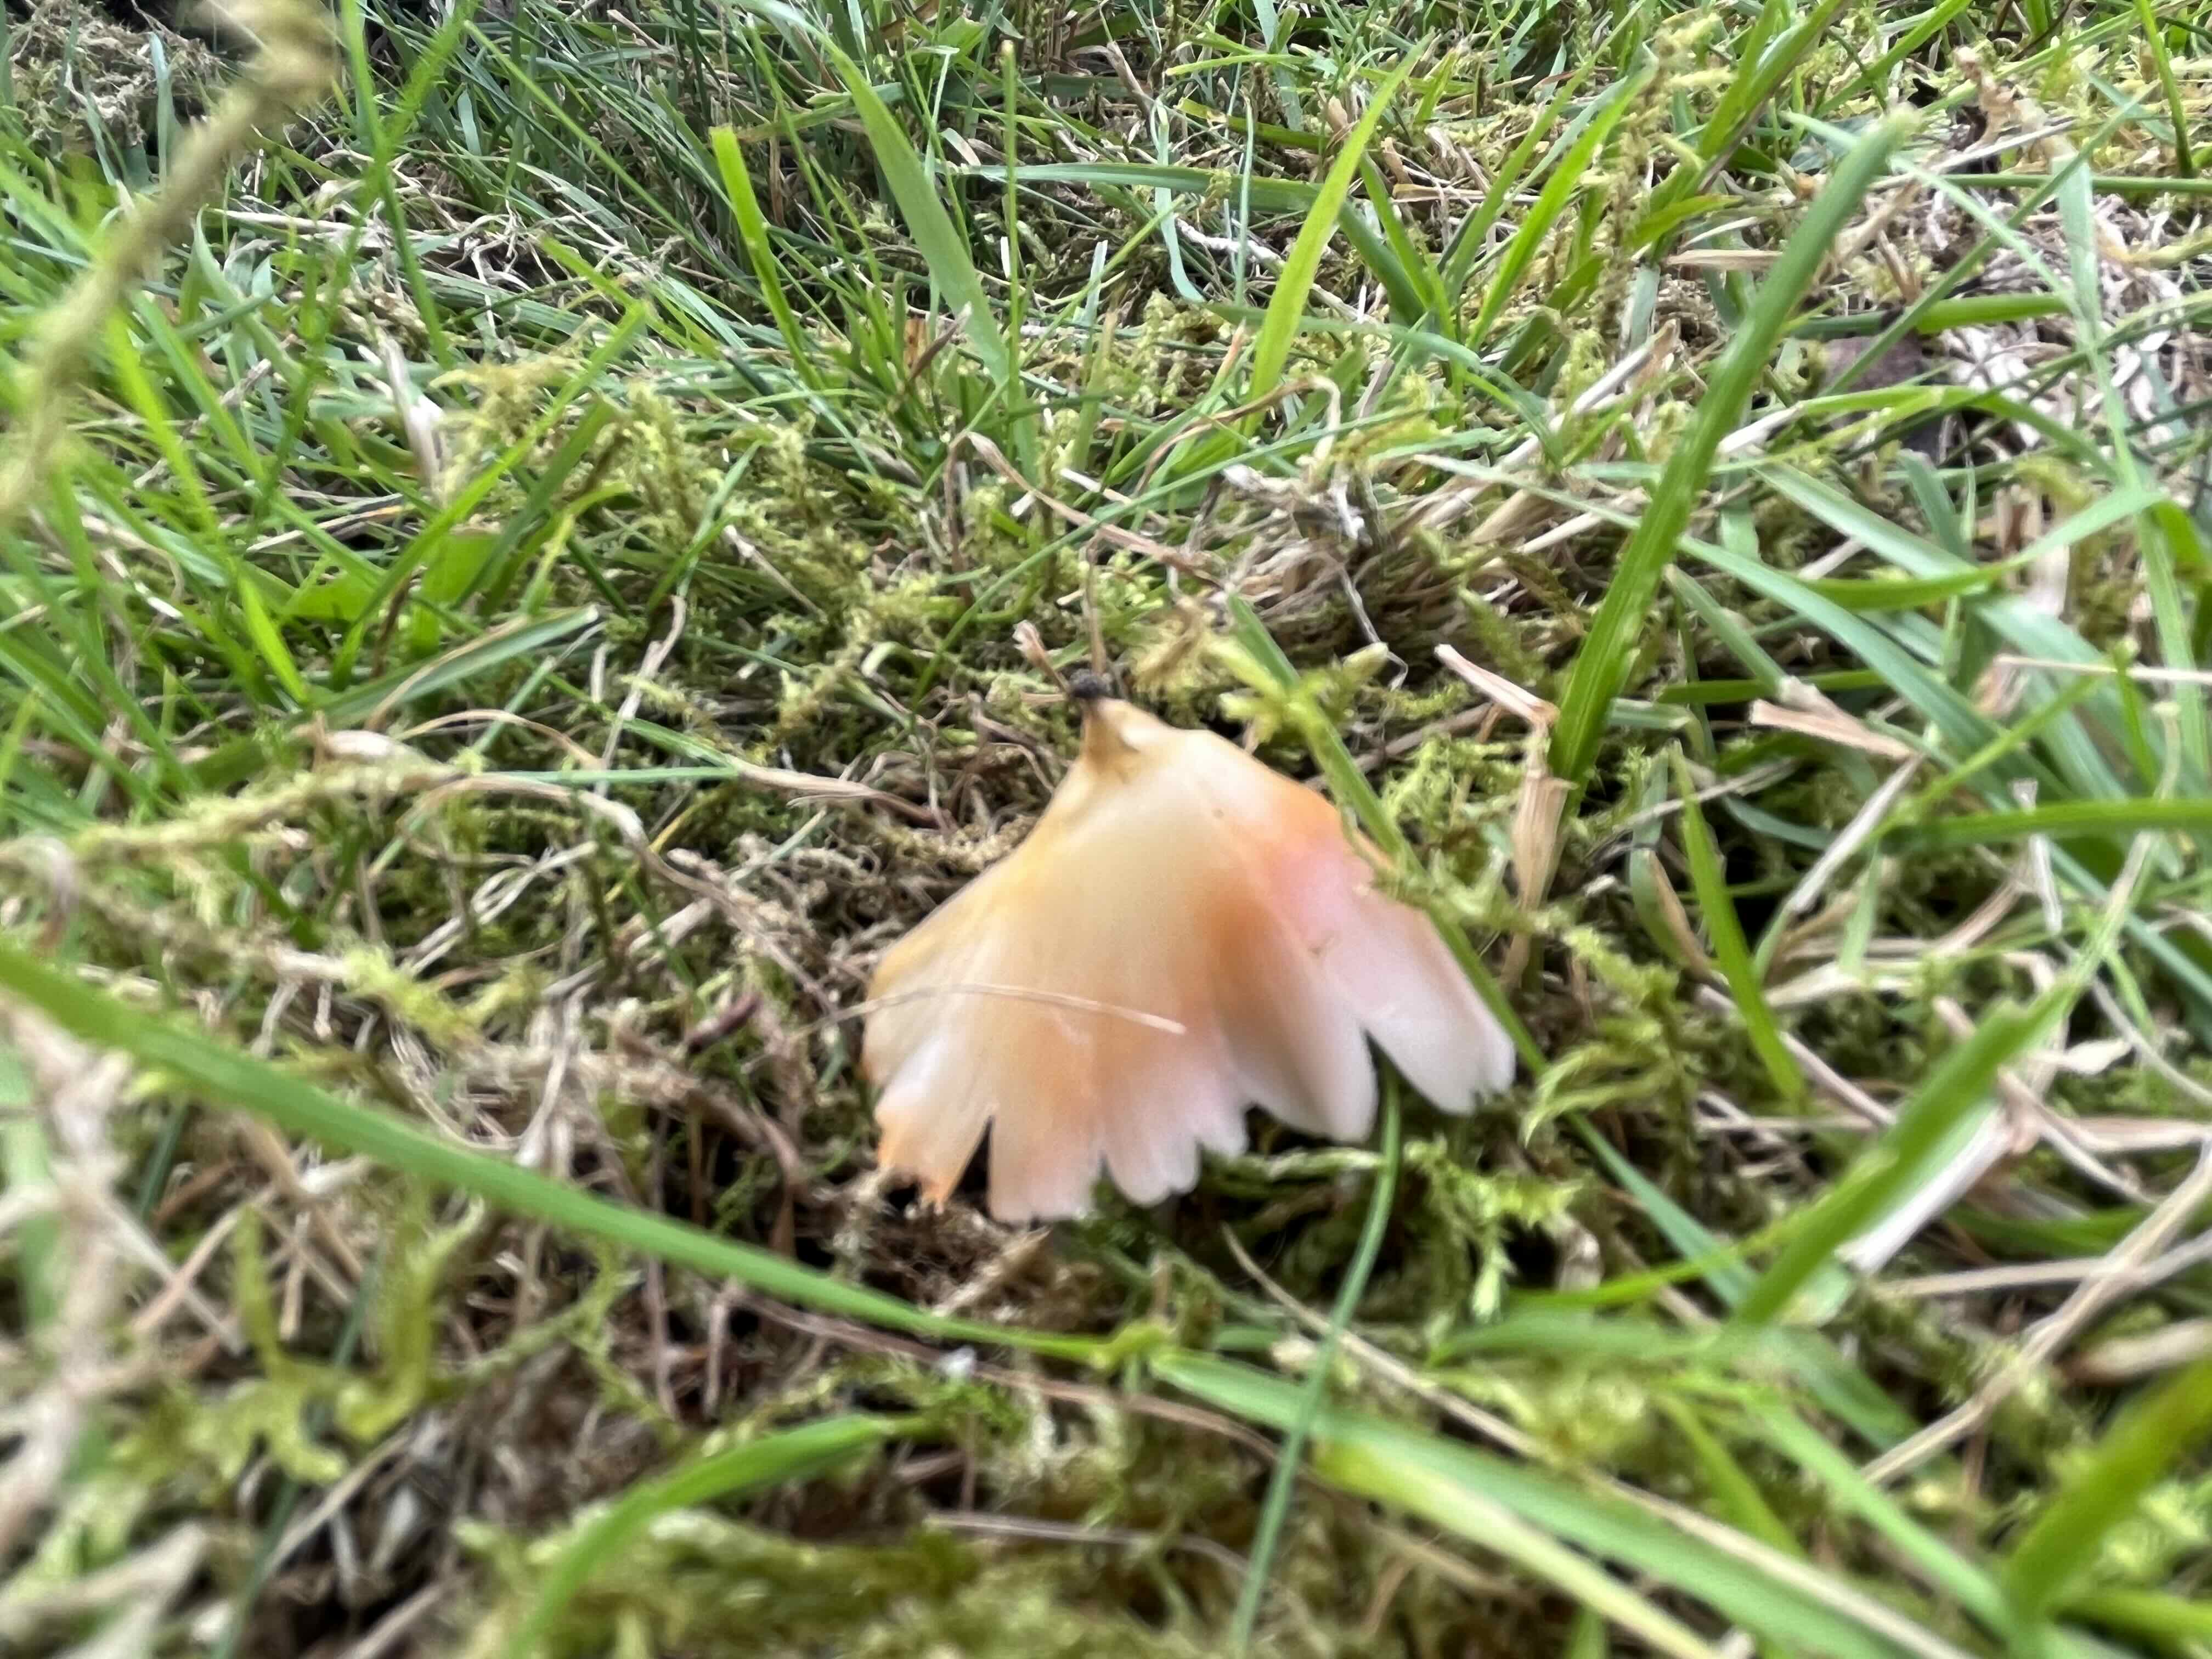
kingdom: Fungi
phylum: Basidiomycota
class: Agaricomycetes
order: Agaricales
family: Hygrophoraceae
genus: Porpolomopsis
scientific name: Porpolomopsis calyptriformis
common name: rosenrød vokshat
